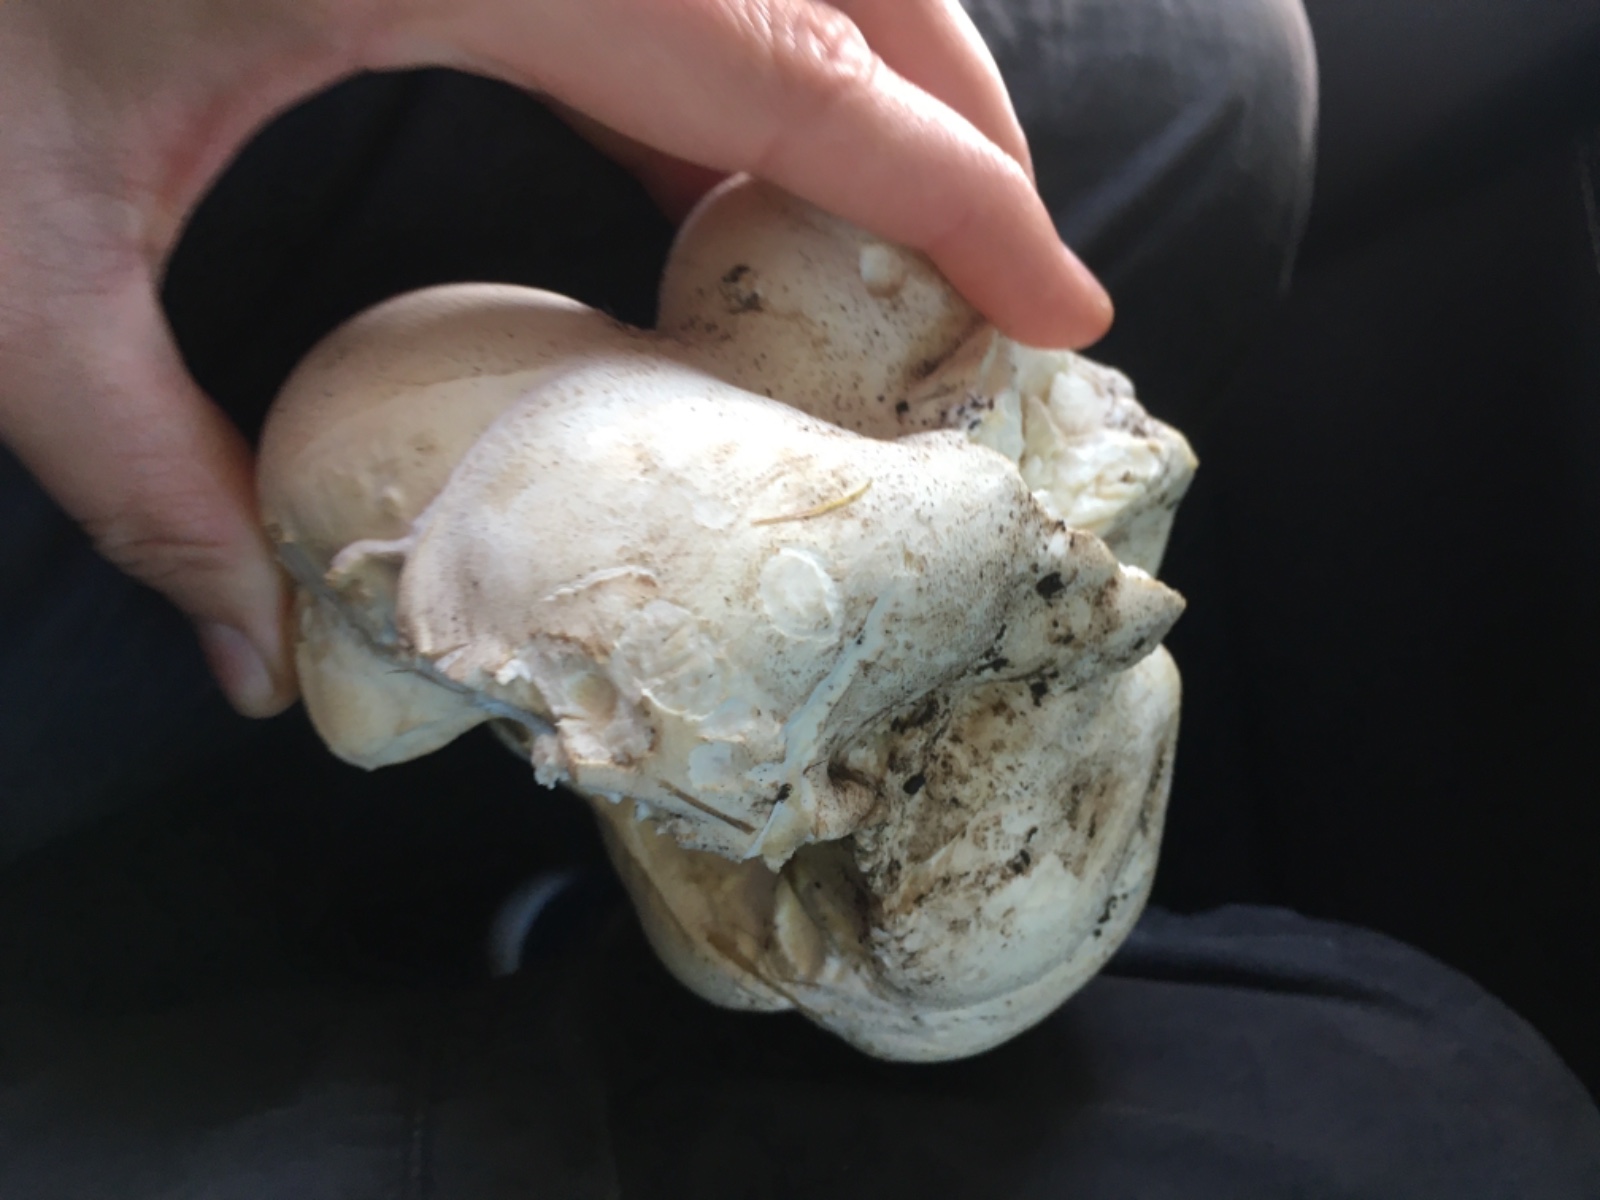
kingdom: Fungi
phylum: Basidiomycota
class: Agaricomycetes
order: Agaricales
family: Lycoperdaceae
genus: Calvatia
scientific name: Calvatia gigantea
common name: kæmpestøvbold
